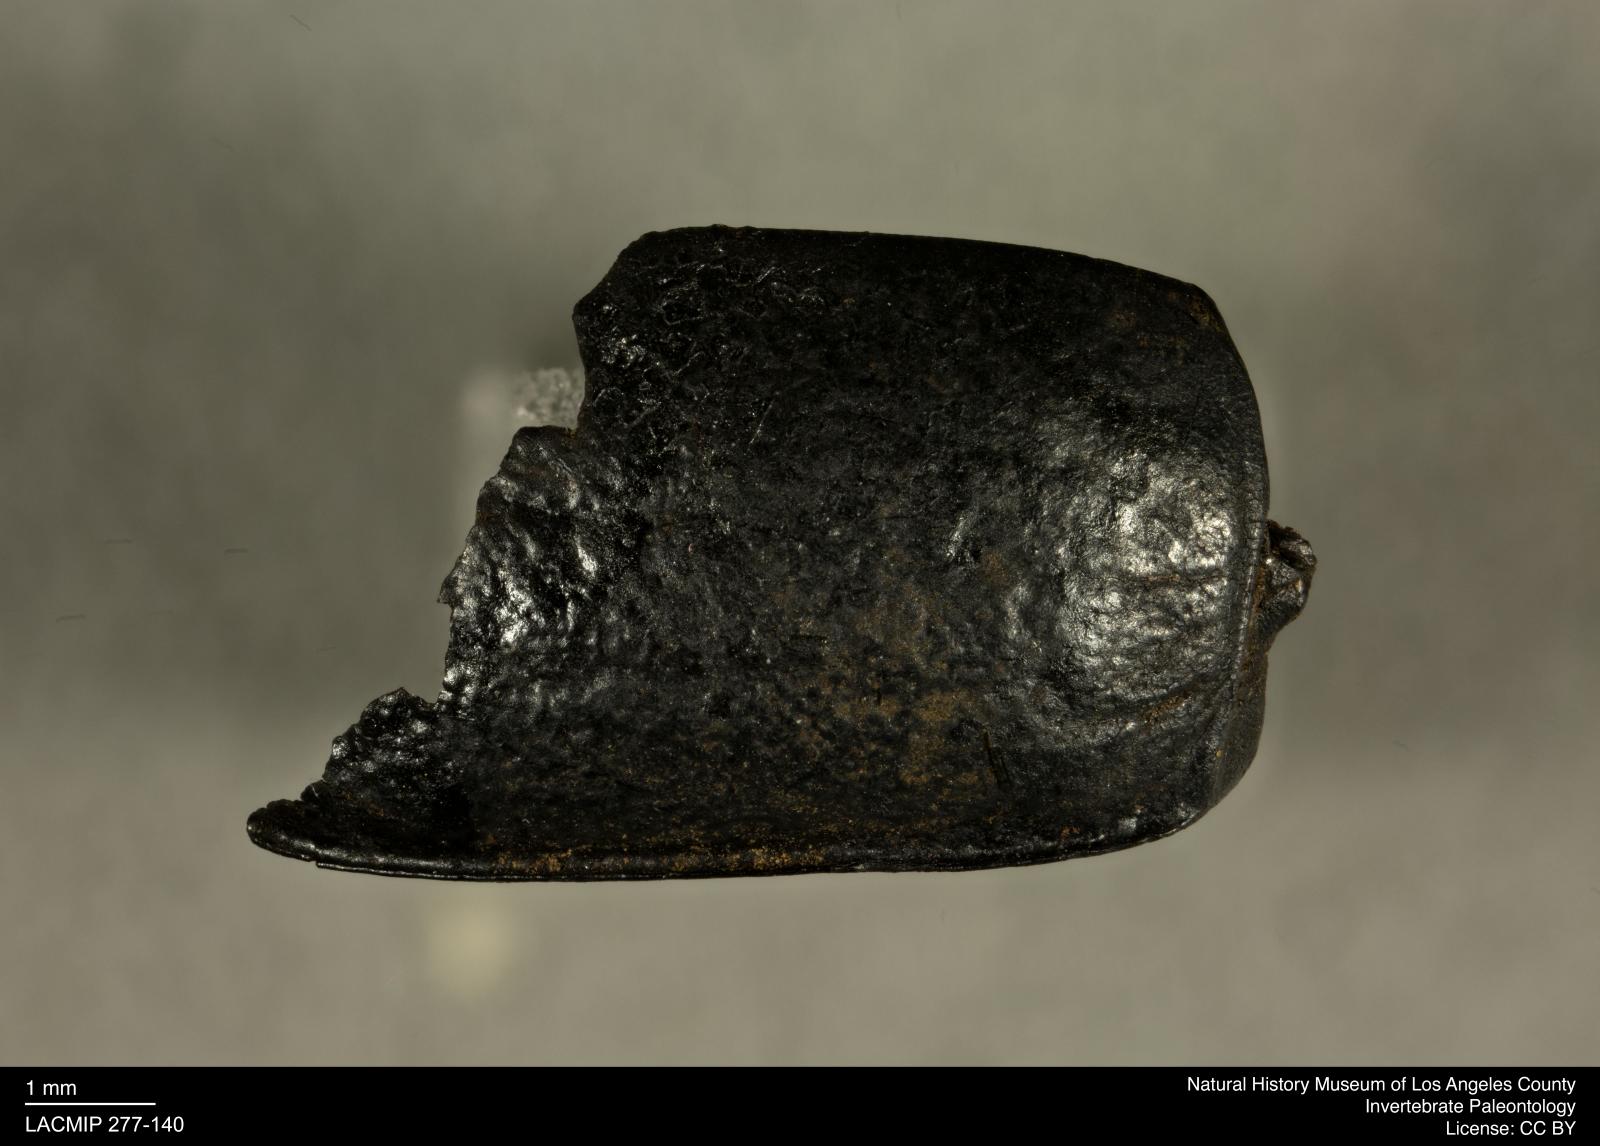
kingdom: Animalia
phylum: Arthropoda
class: Insecta
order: Coleoptera
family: Tenebrionidae
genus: Coniontis
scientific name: Coniontis abdominalis
